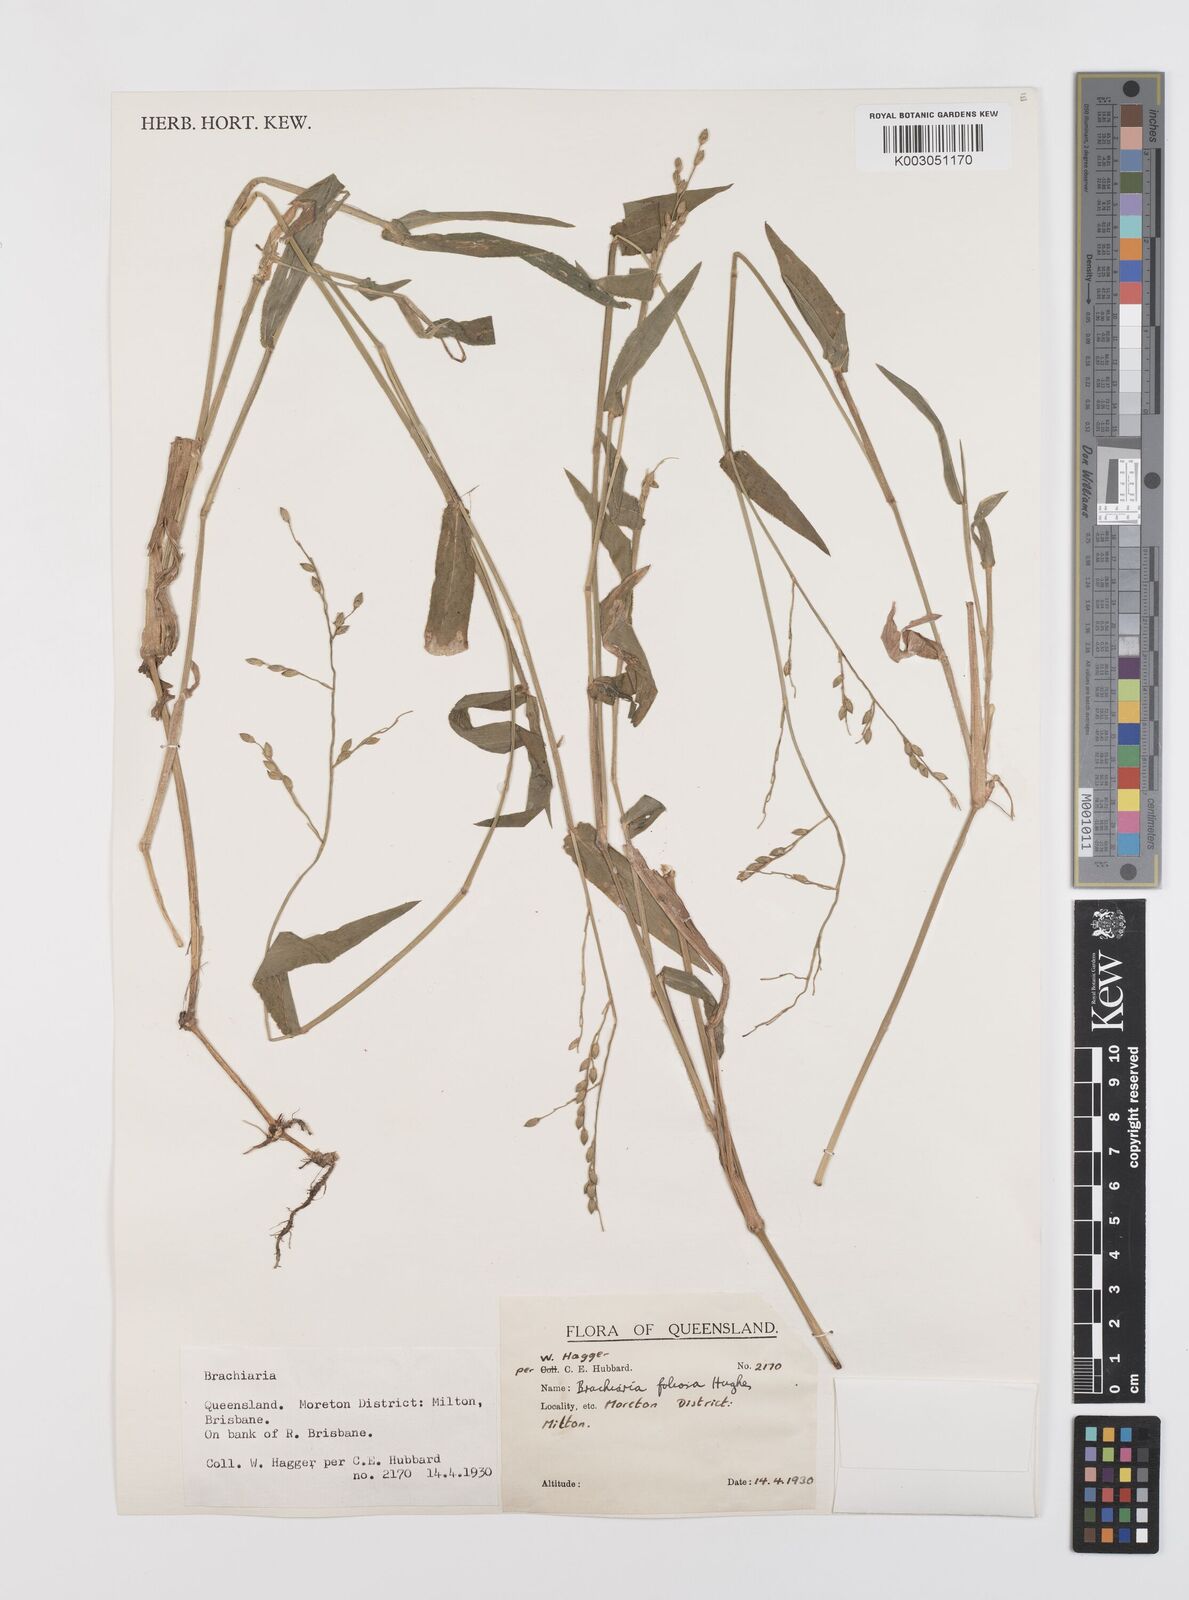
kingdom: Plantae
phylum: Tracheophyta
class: Liliopsida
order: Poales
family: Poaceae
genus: Urochloa
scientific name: Urochloa foliosa
